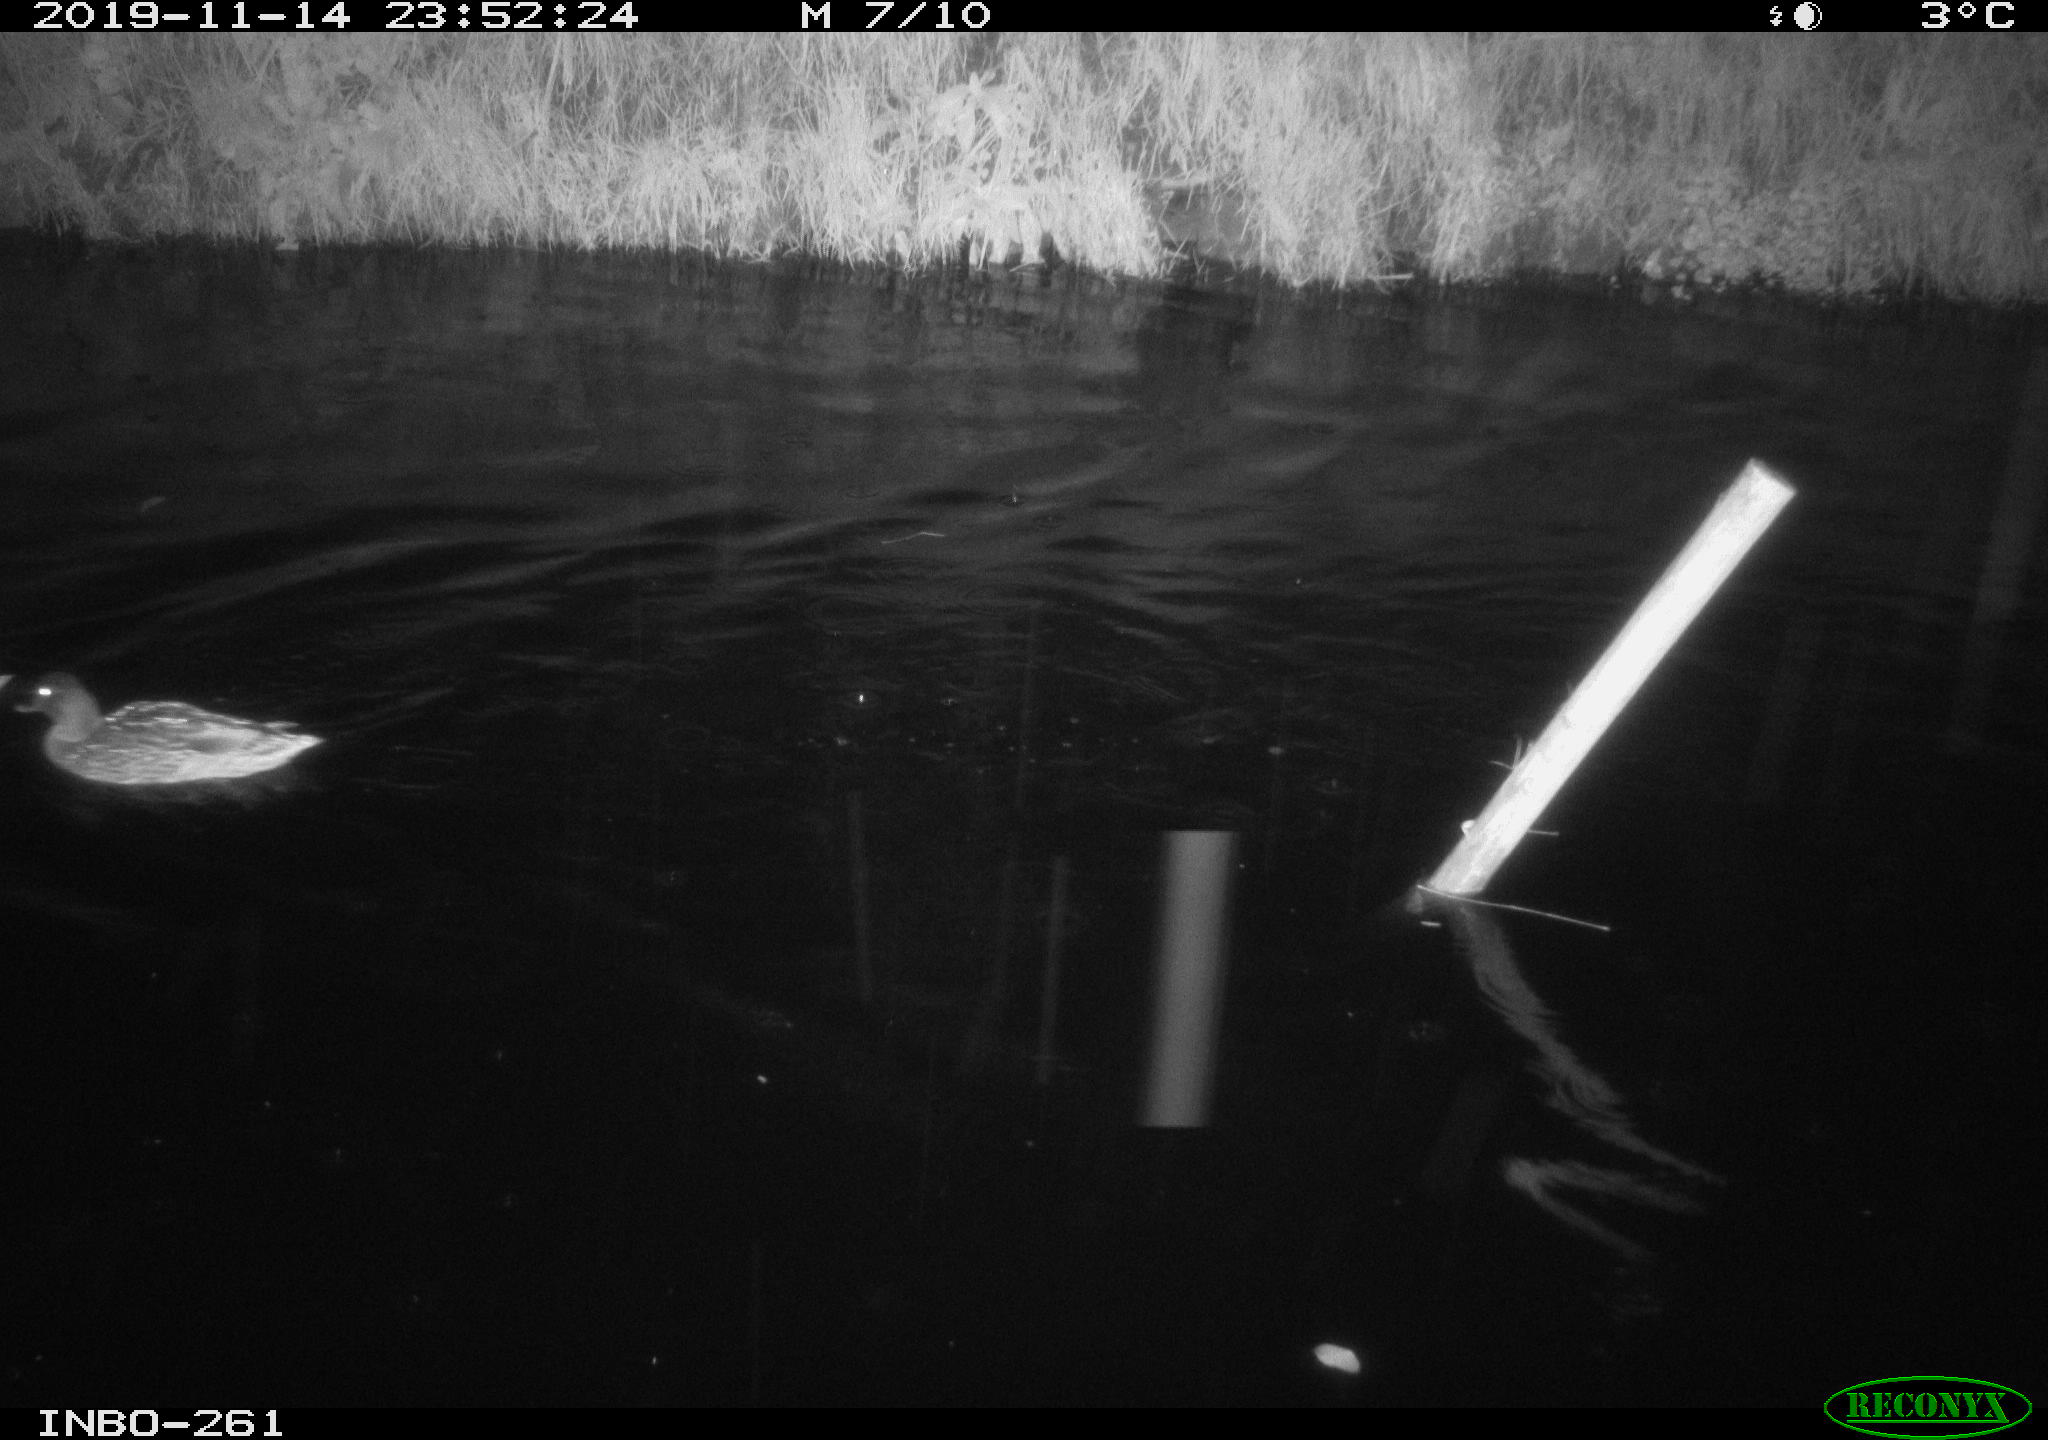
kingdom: Animalia
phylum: Chordata
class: Aves
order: Anseriformes
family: Anatidae
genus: Anas
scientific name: Anas platyrhynchos
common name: Mallard
